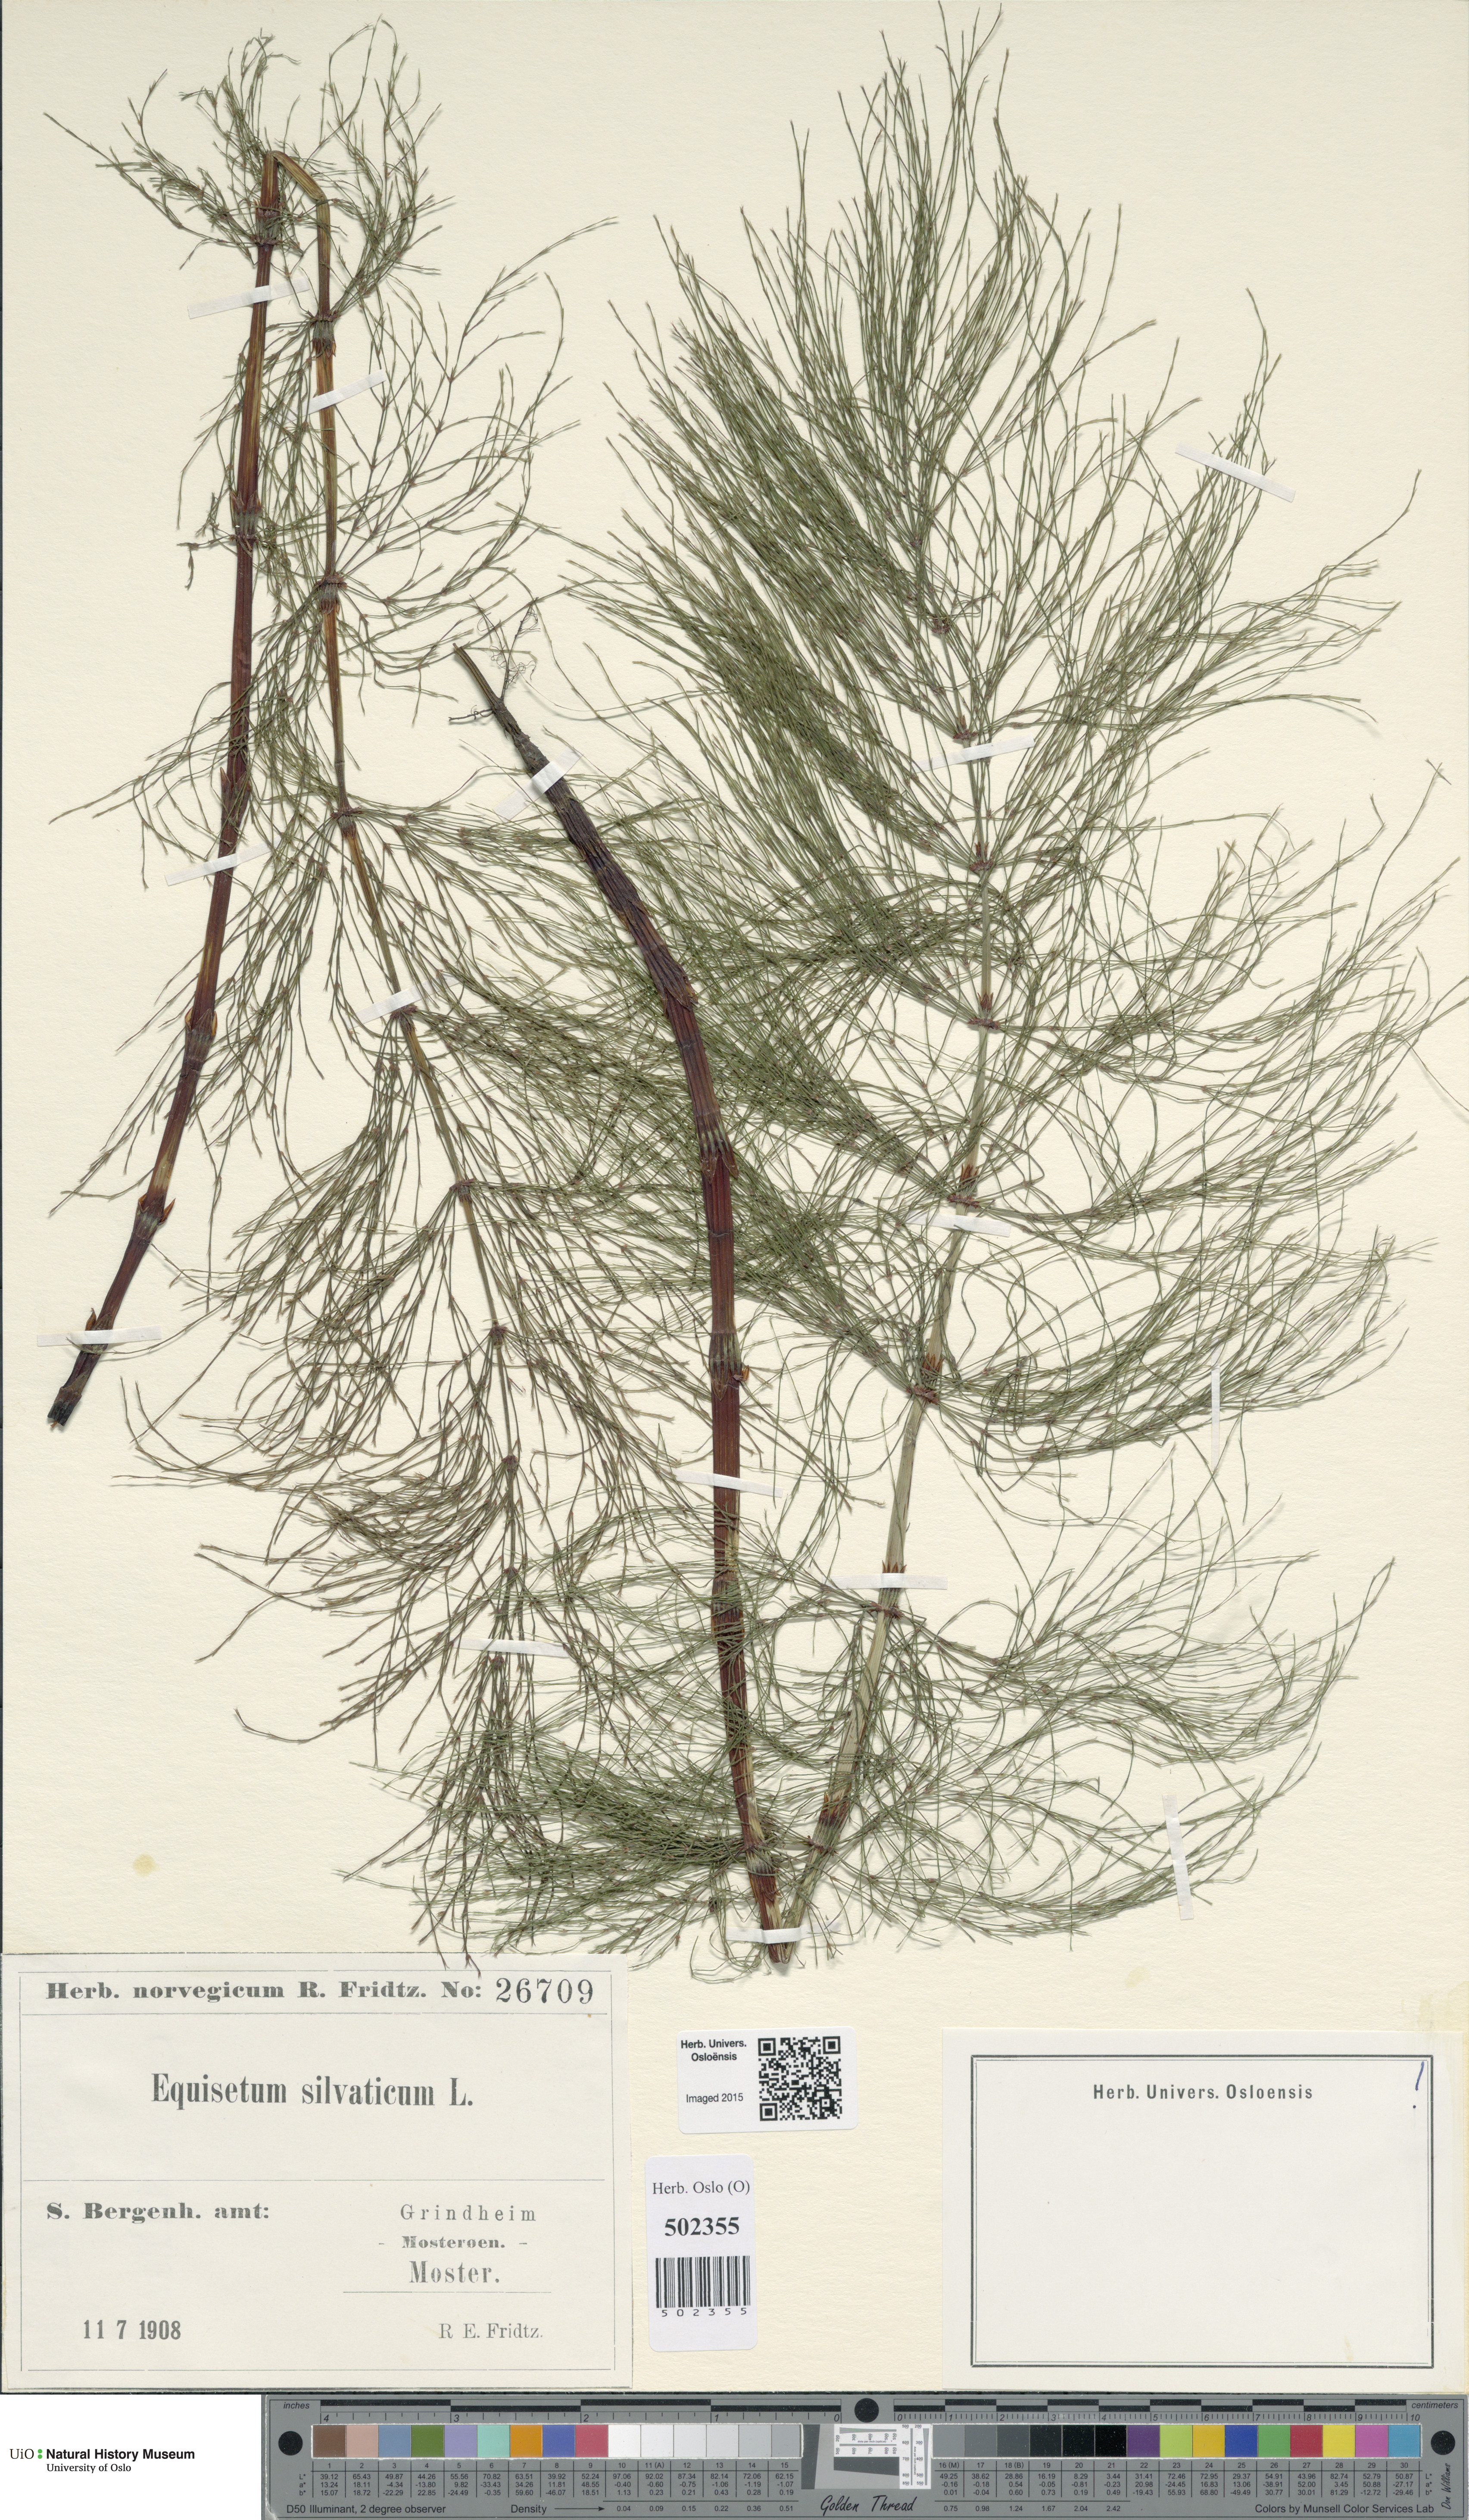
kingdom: Plantae
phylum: Tracheophyta
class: Polypodiopsida
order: Equisetales
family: Equisetaceae
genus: Equisetum
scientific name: Equisetum sylvaticum
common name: Wood horsetail
